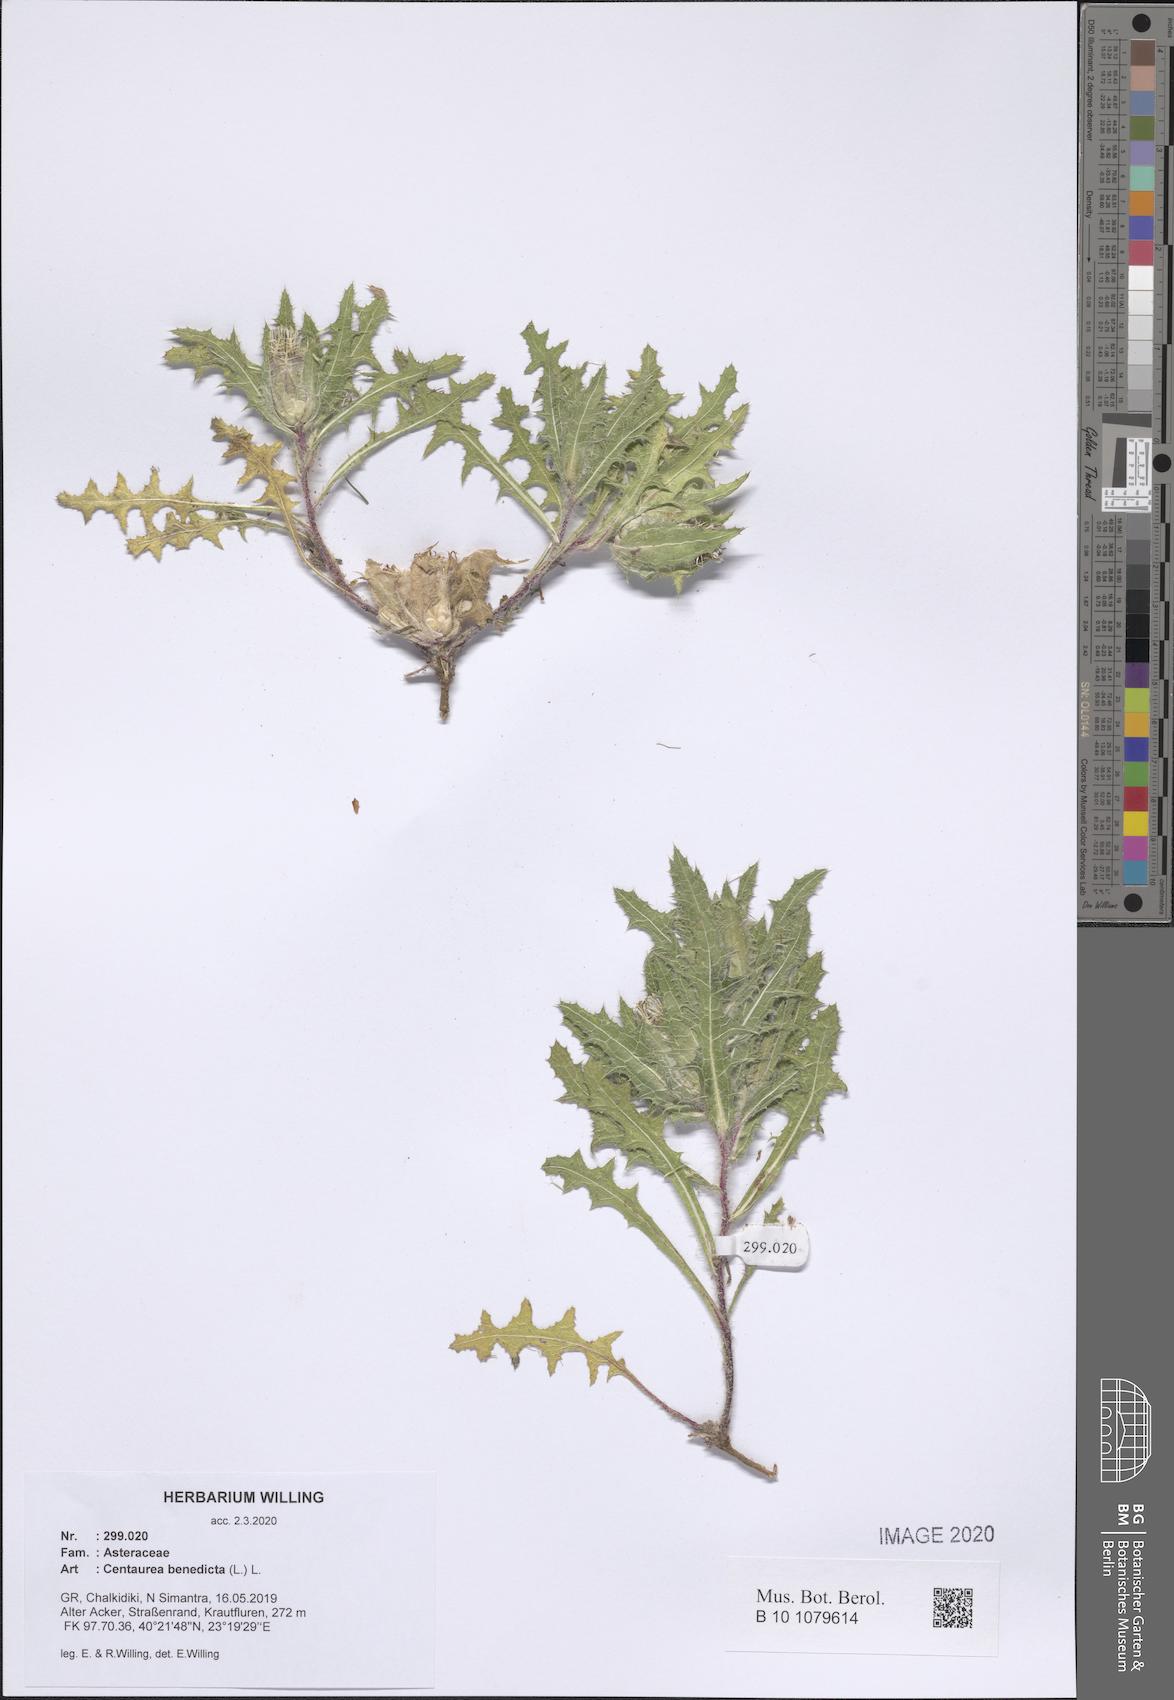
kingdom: Plantae
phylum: Tracheophyta
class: Magnoliopsida
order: Asterales
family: Asteraceae
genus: Centaurea
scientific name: Centaurea benedicta
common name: Blessed thistle
